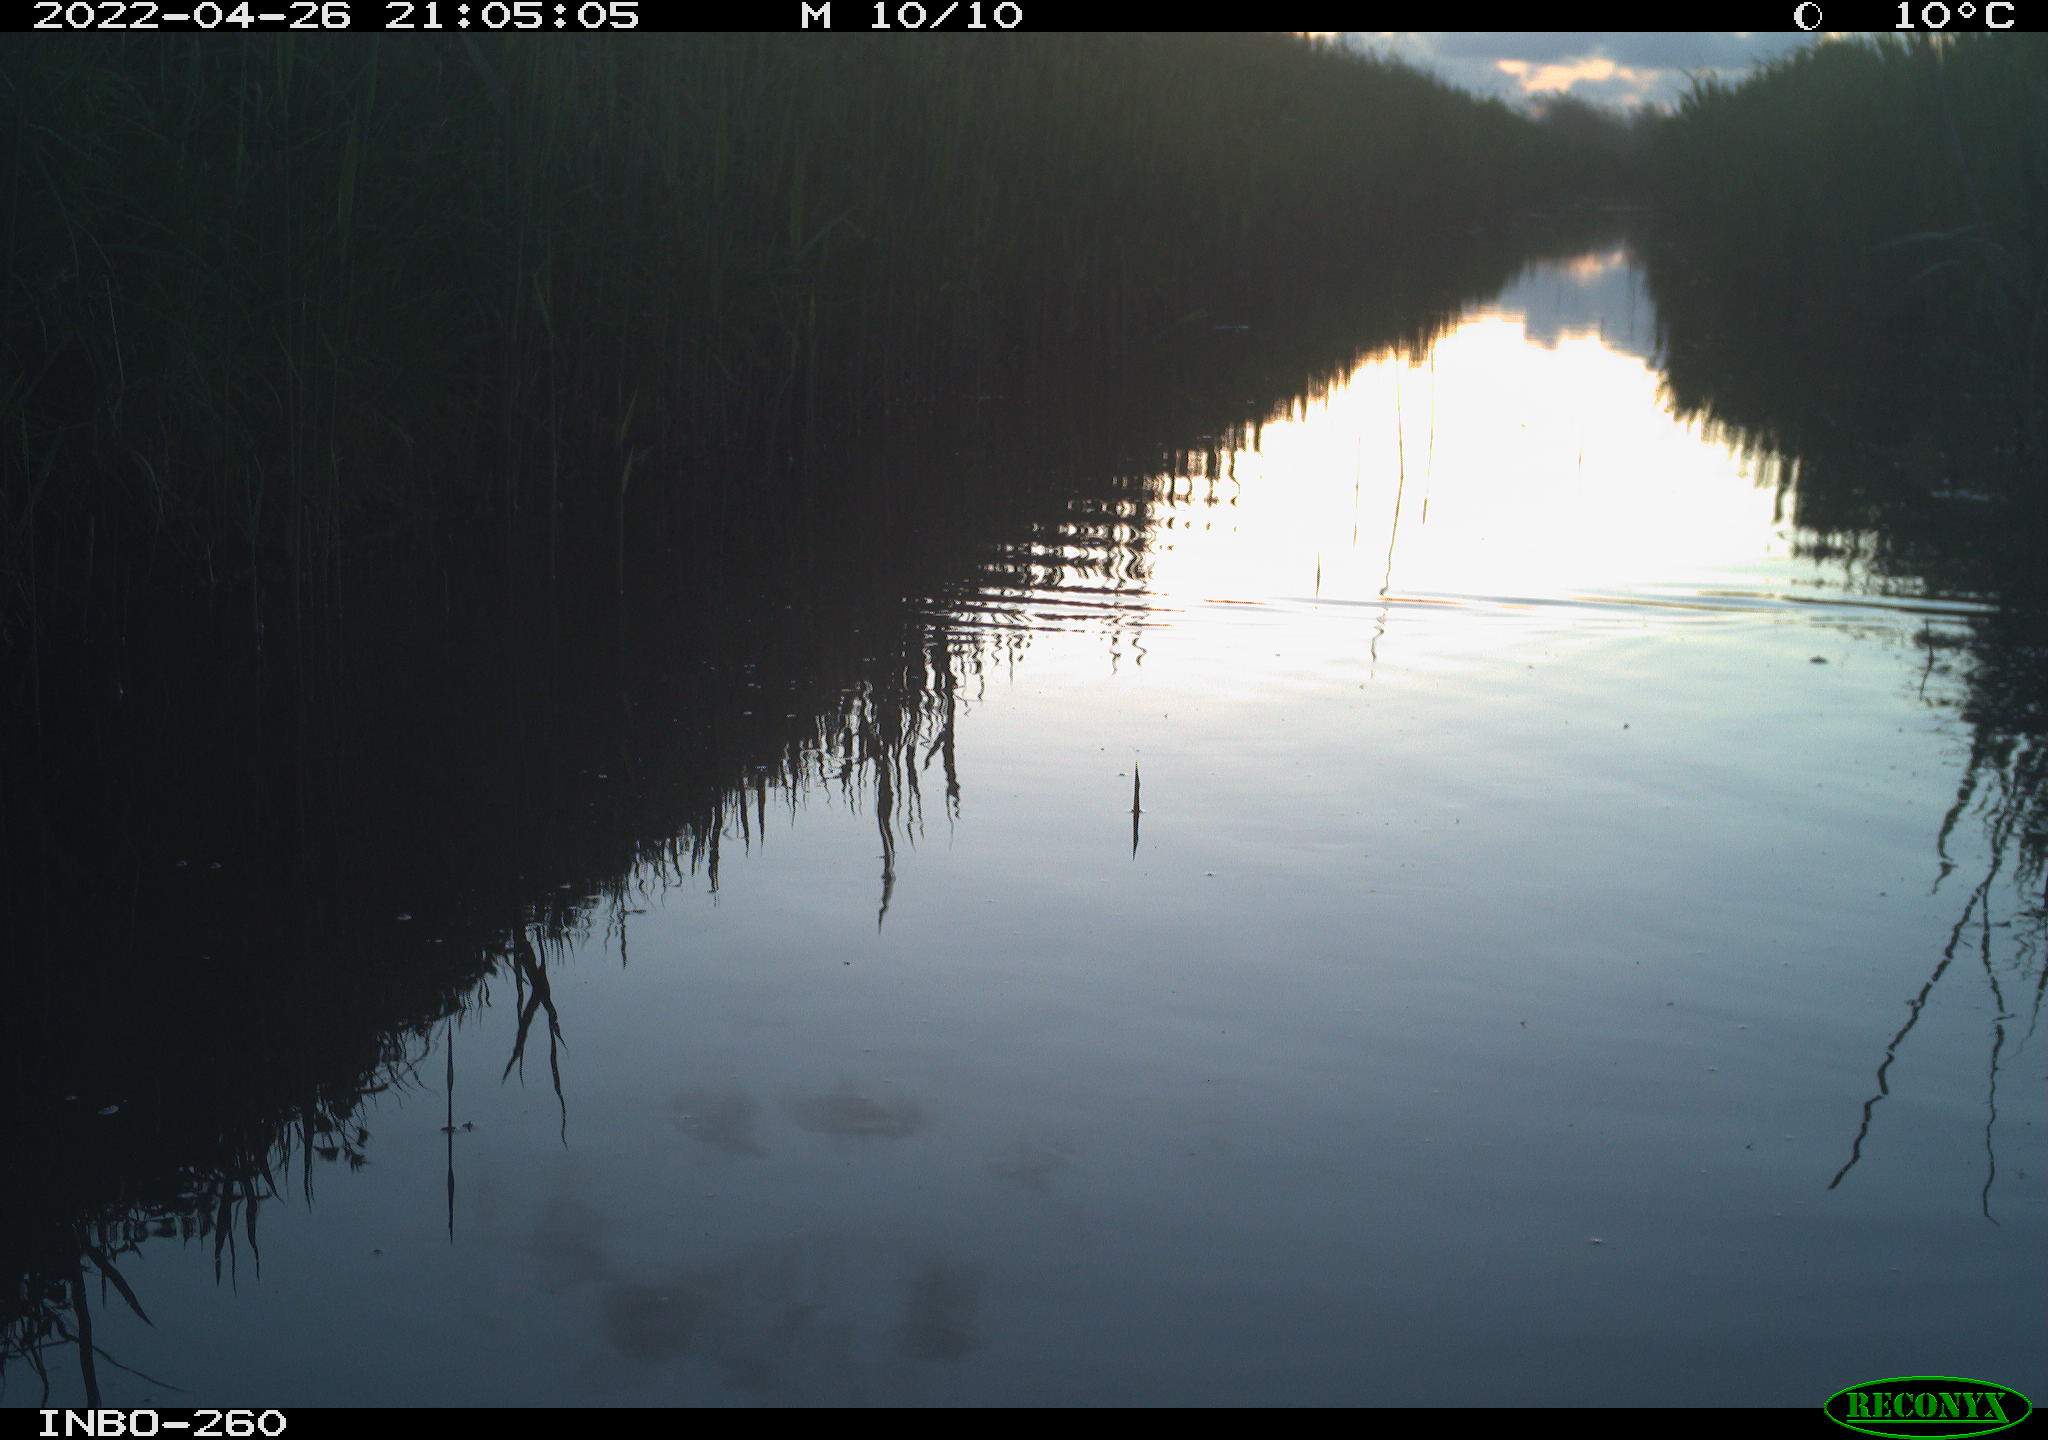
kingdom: Animalia
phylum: Chordata
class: Mammalia
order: Rodentia
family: Cricetidae
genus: Ondatra
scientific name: Ondatra zibethicus
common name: Muskrat
